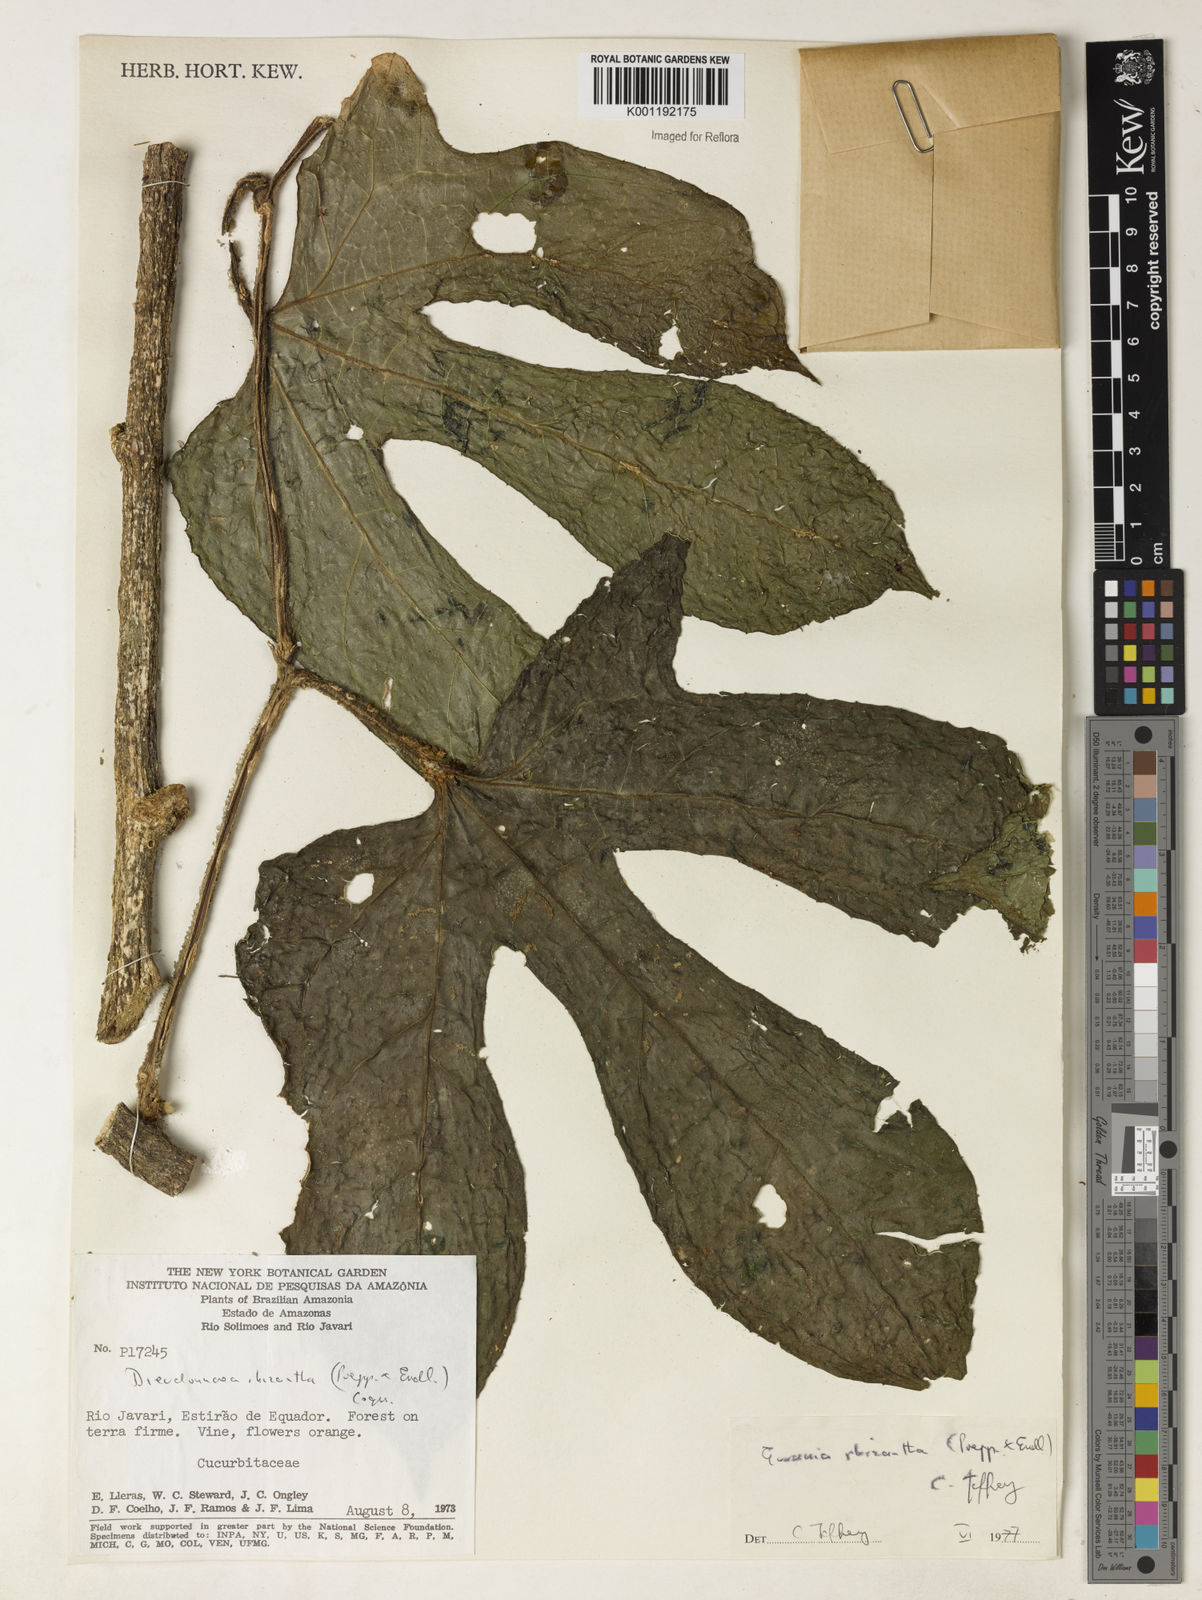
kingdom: Plantae
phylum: Tracheophyta
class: Magnoliopsida
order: Cucurbitales
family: Cucurbitaceae
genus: Gurania
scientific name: Gurania rhizantha
